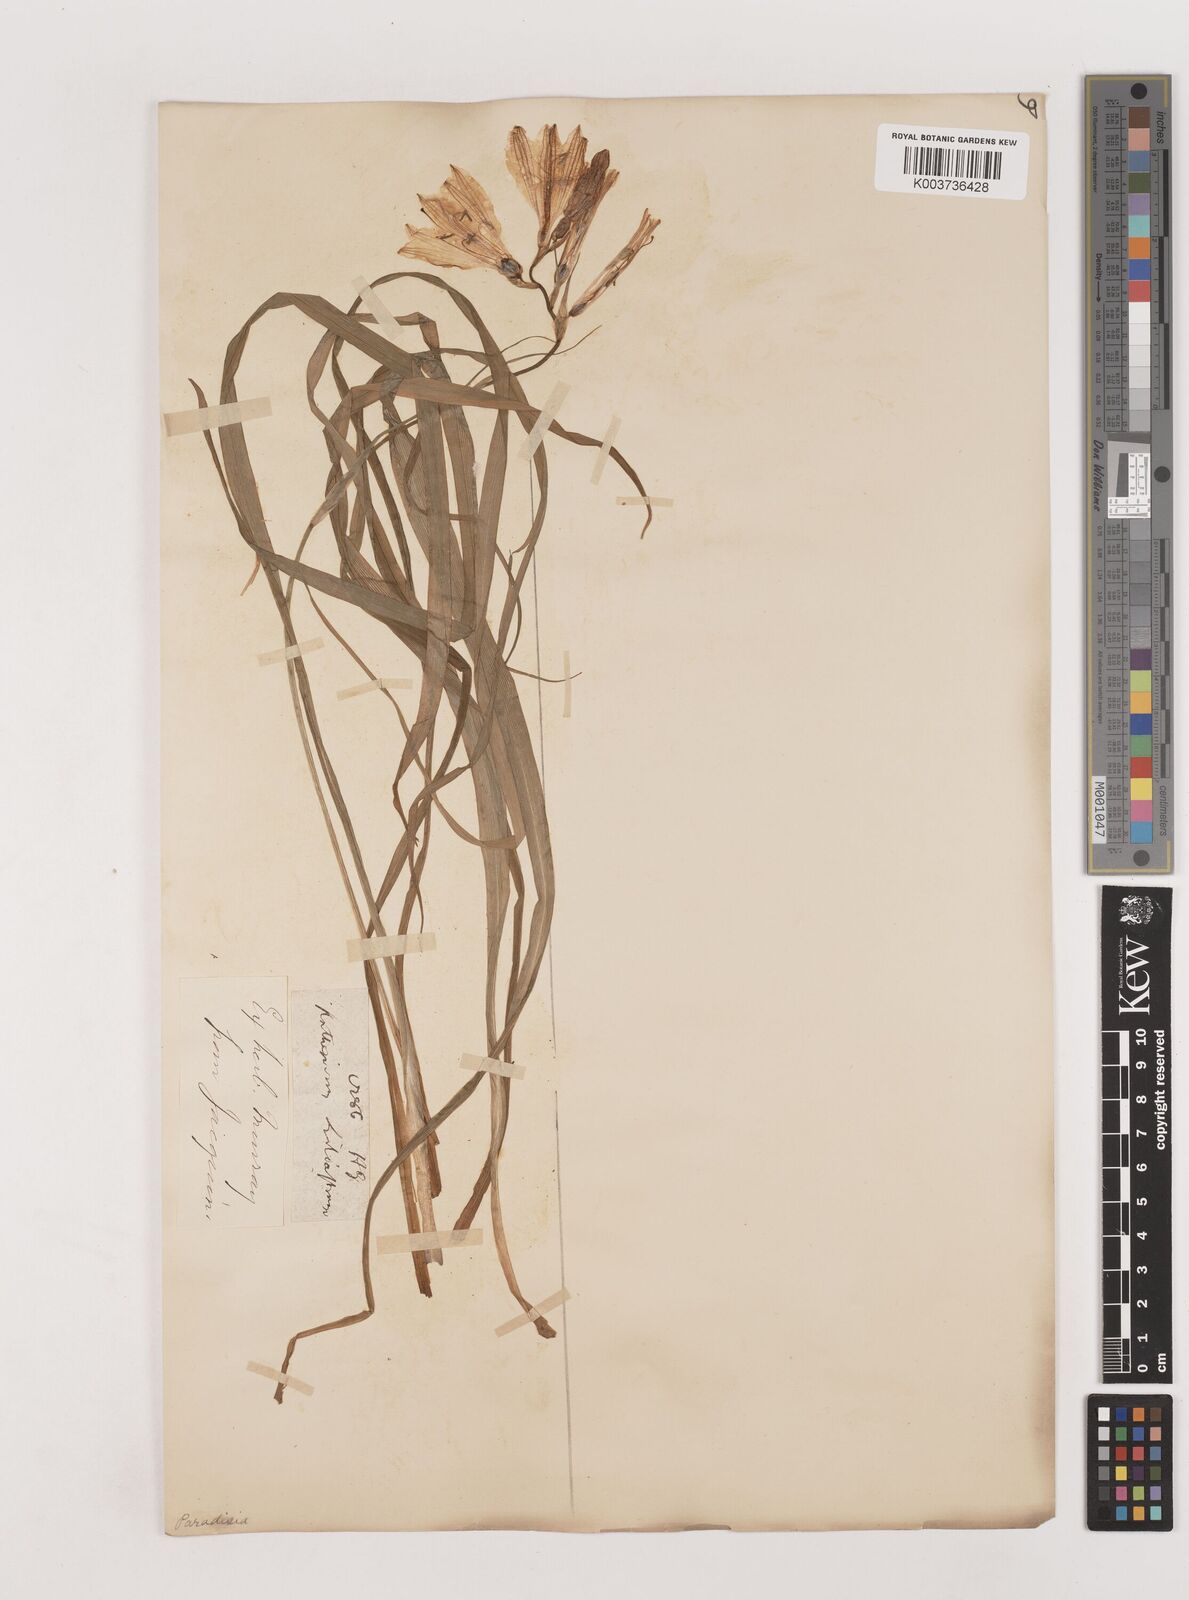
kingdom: Plantae
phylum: Tracheophyta
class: Liliopsida
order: Asparagales
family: Asparagaceae
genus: Paradisea
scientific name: Paradisea liliastrum
